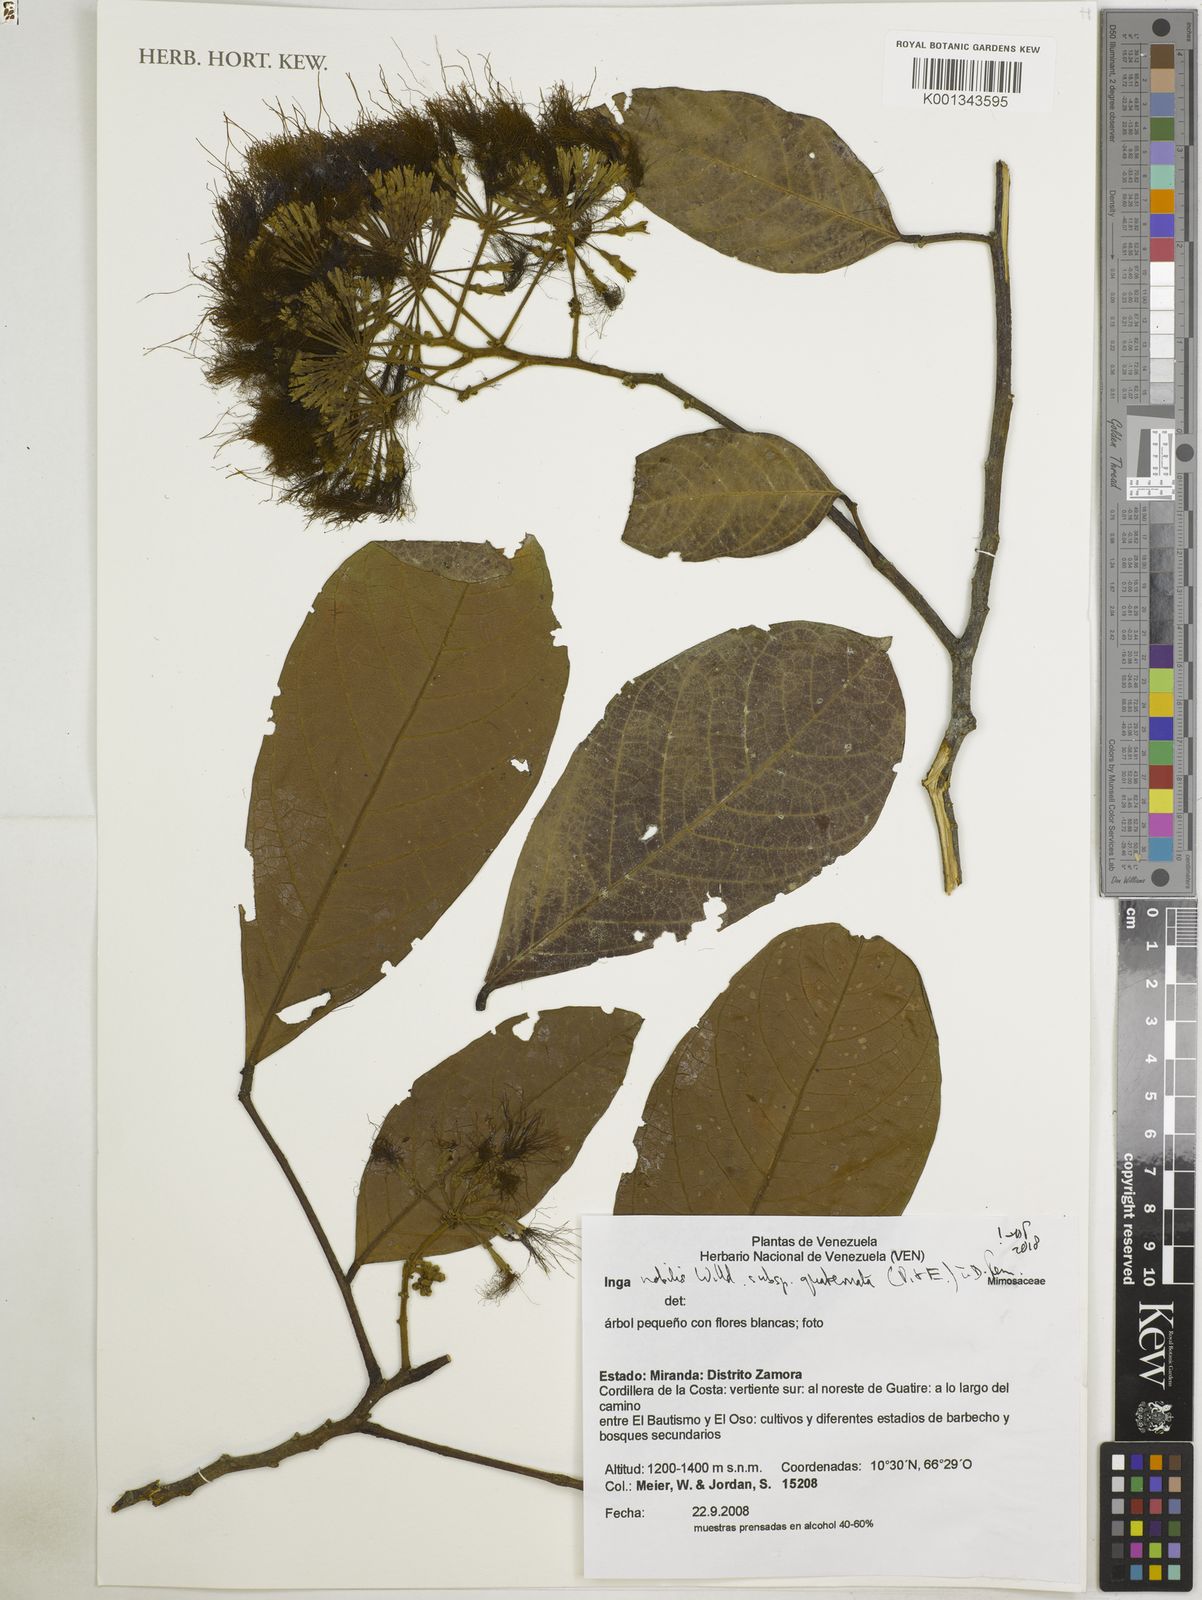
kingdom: Plantae
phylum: Tracheophyta
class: Magnoliopsida
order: Fabales
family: Fabaceae
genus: Inga
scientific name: Inga nobilis
